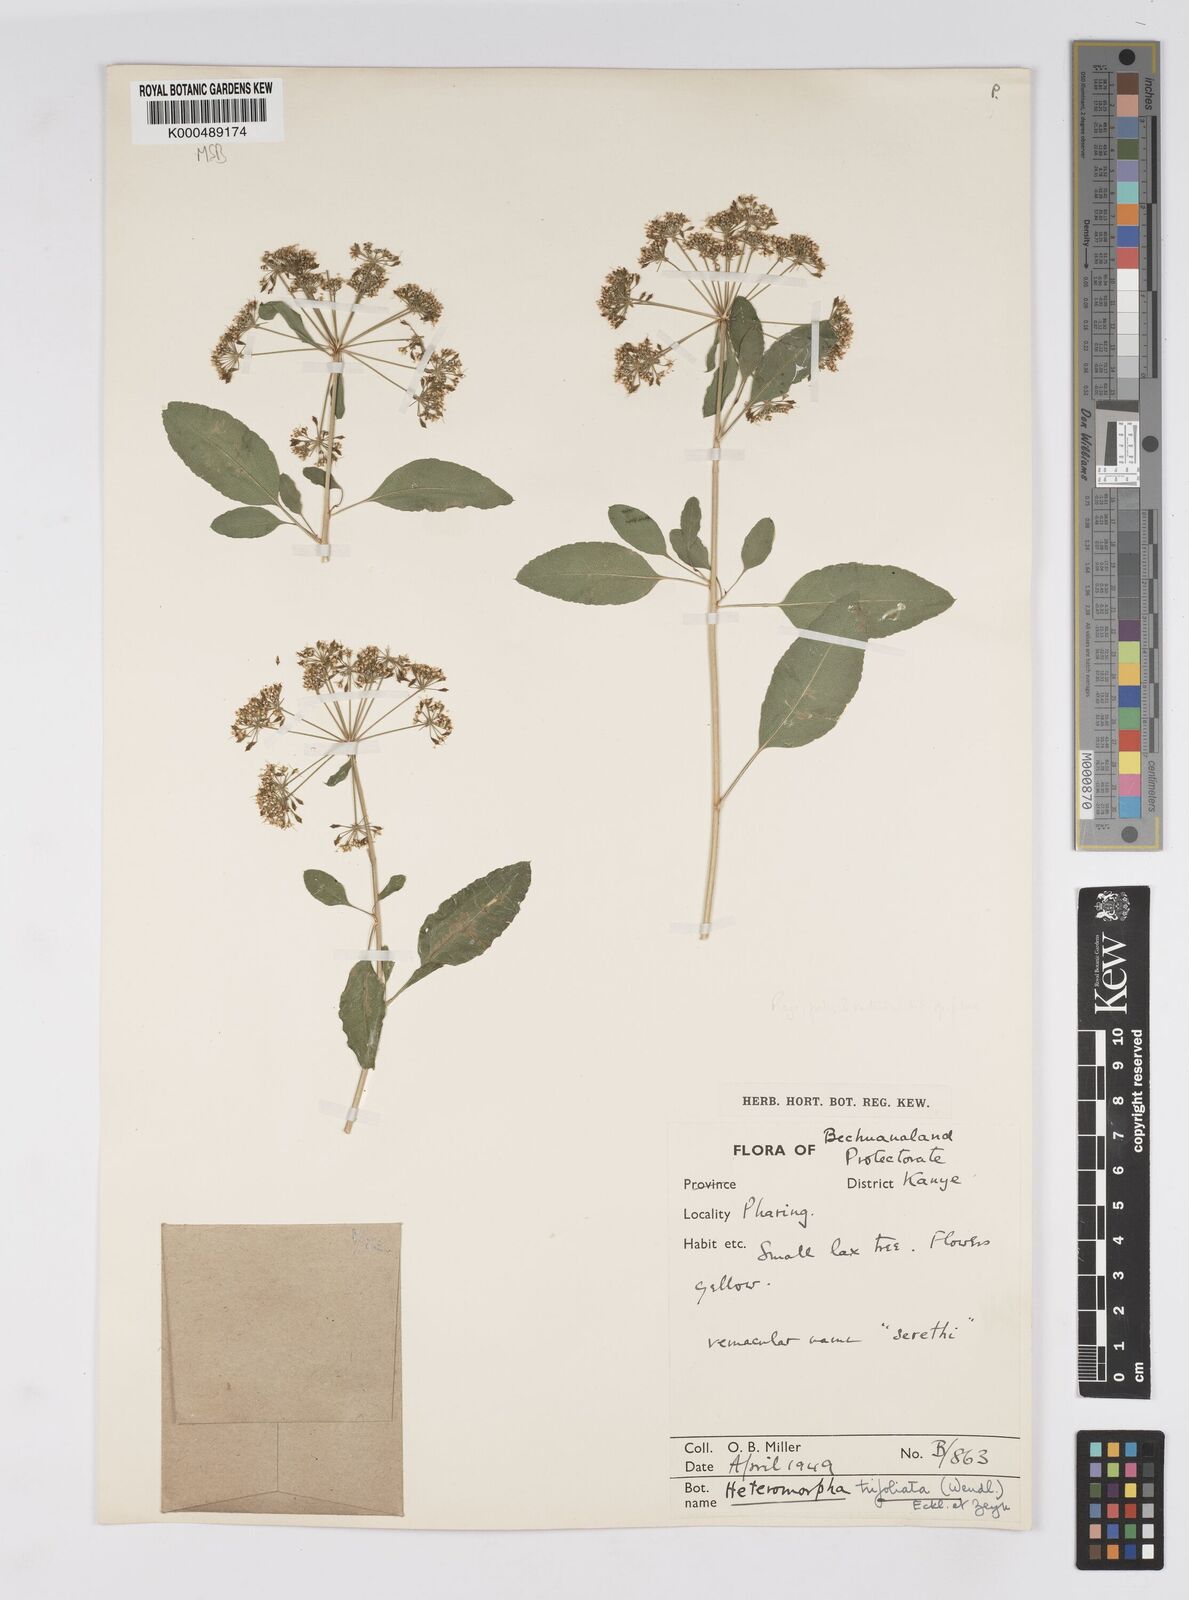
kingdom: Plantae
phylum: Tracheophyta
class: Magnoliopsida
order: Apiales
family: Apiaceae
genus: Heteromorpha
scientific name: Heteromorpha arborescens
